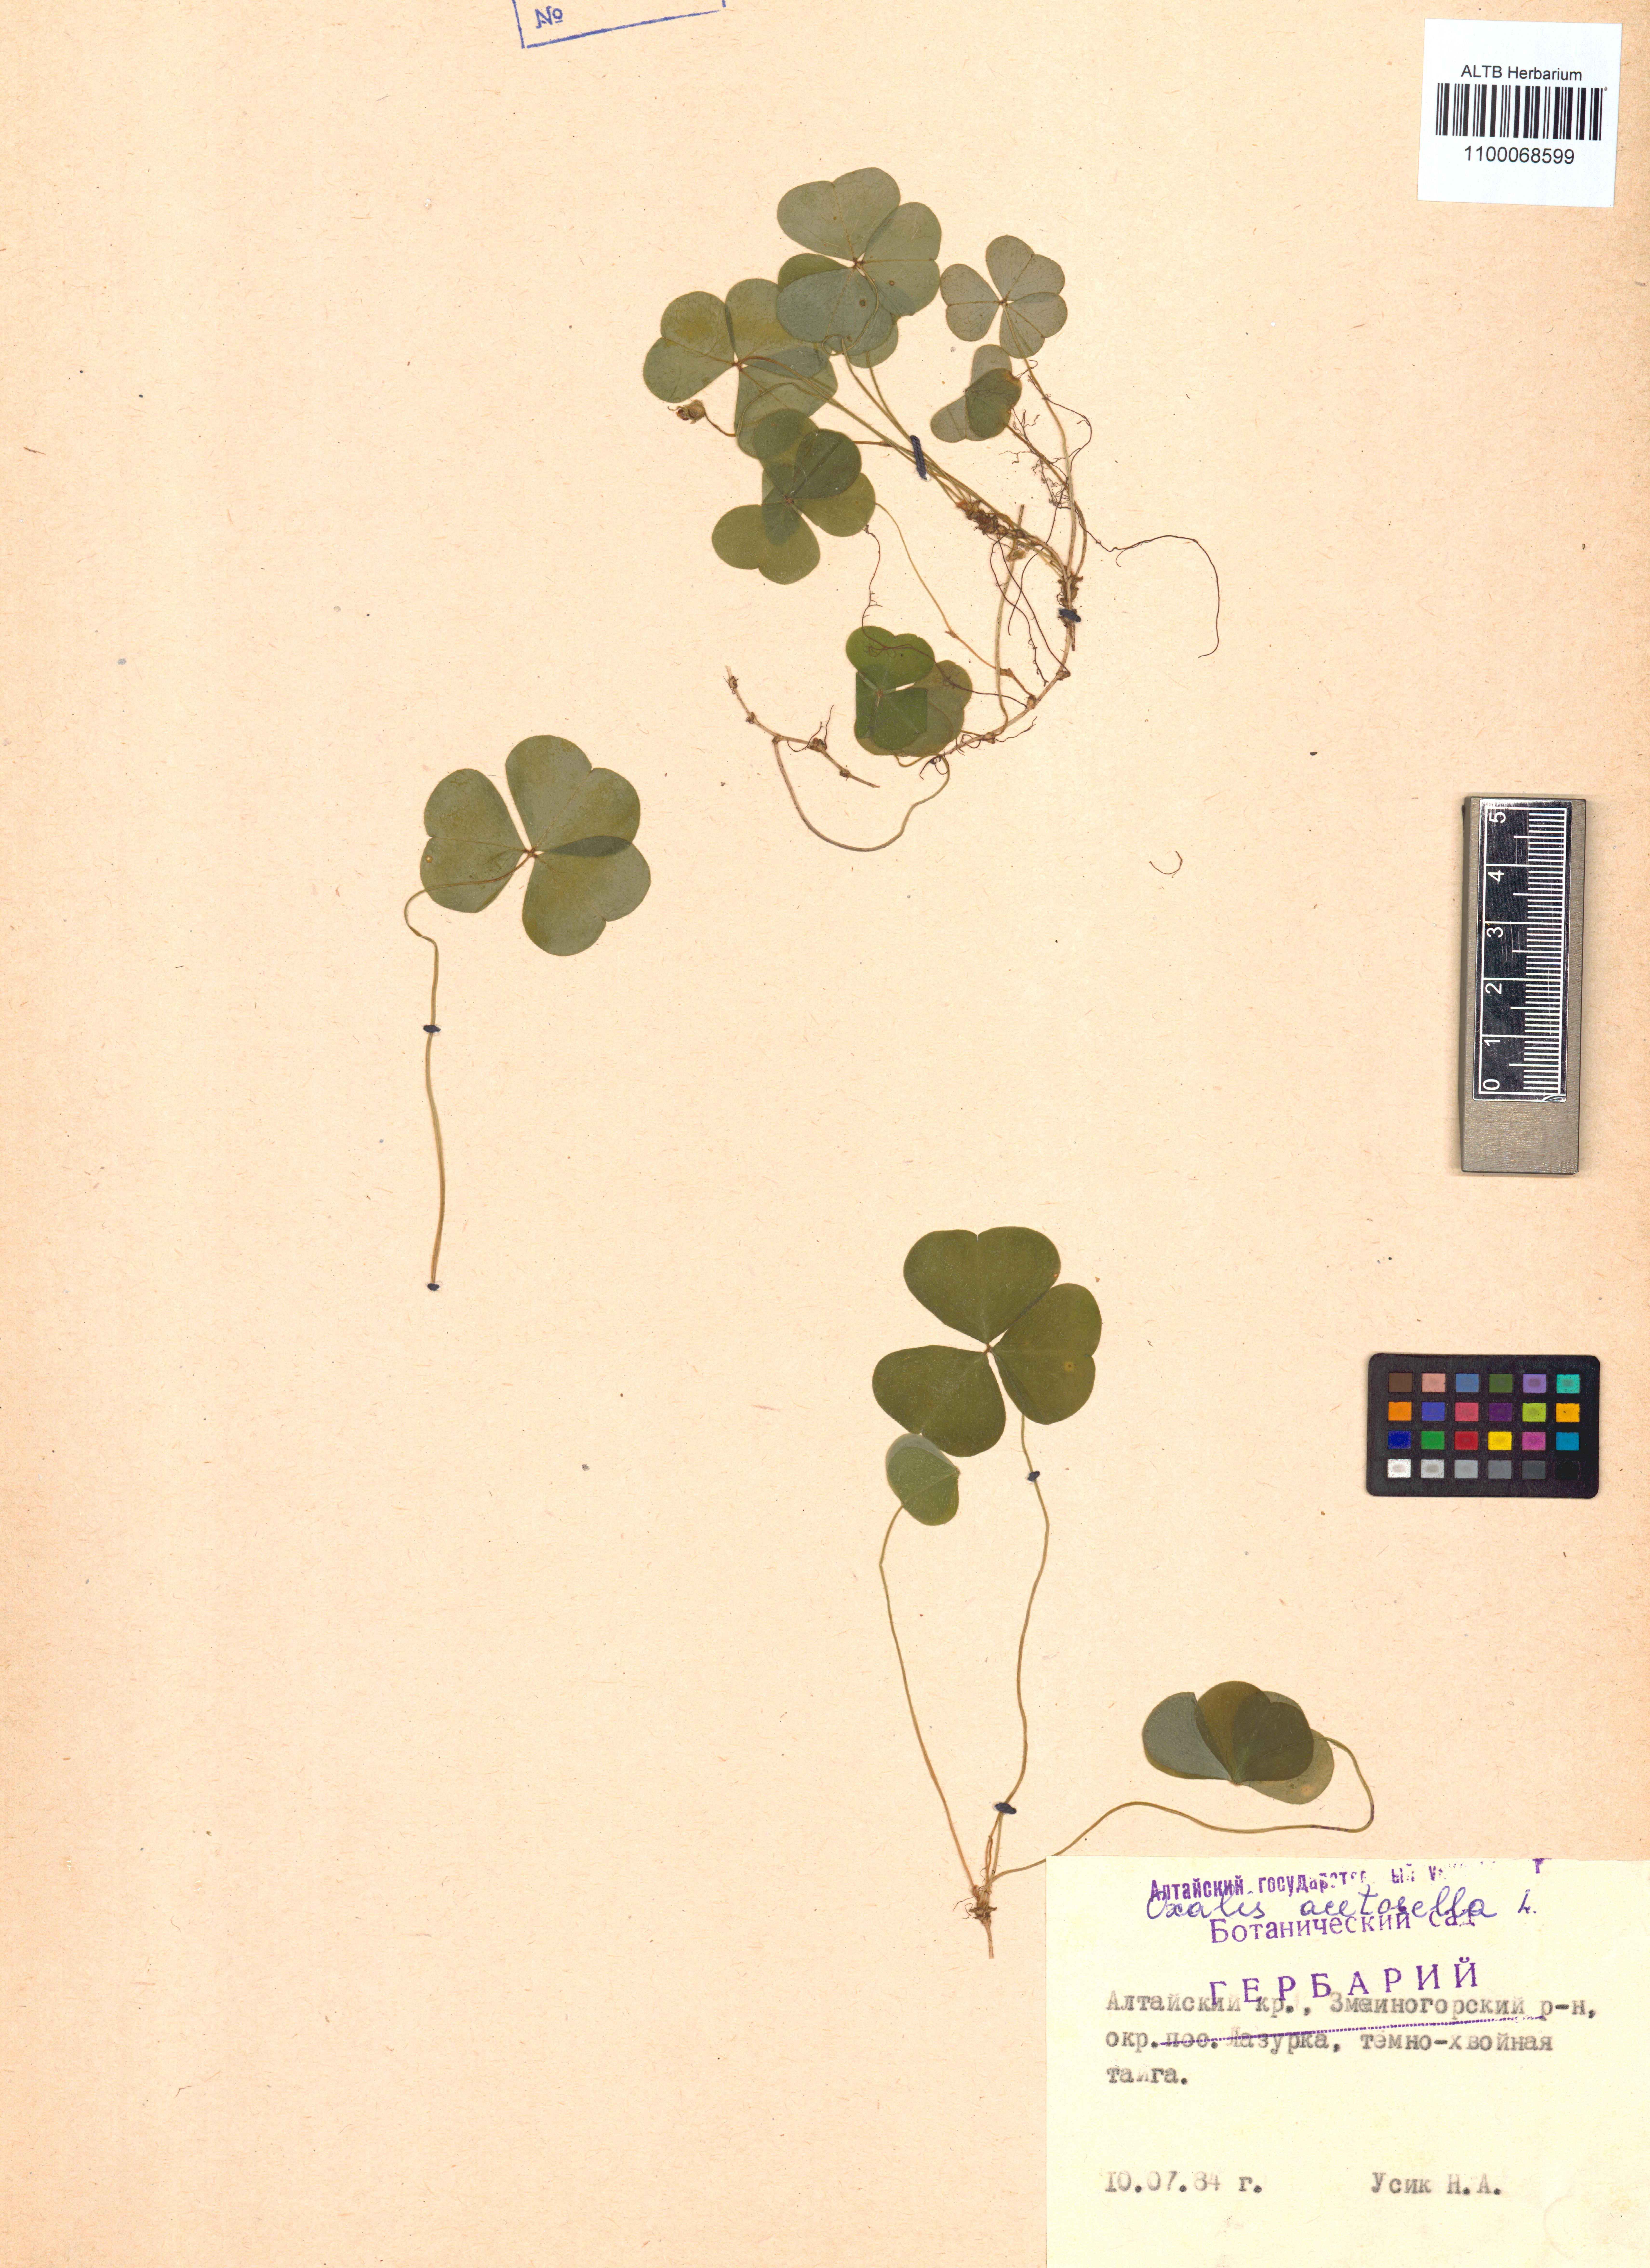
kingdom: Plantae
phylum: Tracheophyta
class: Magnoliopsida
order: Oxalidales
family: Oxalidaceae
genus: Oxalis
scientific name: Oxalis acetosella
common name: Wood-sorrel
